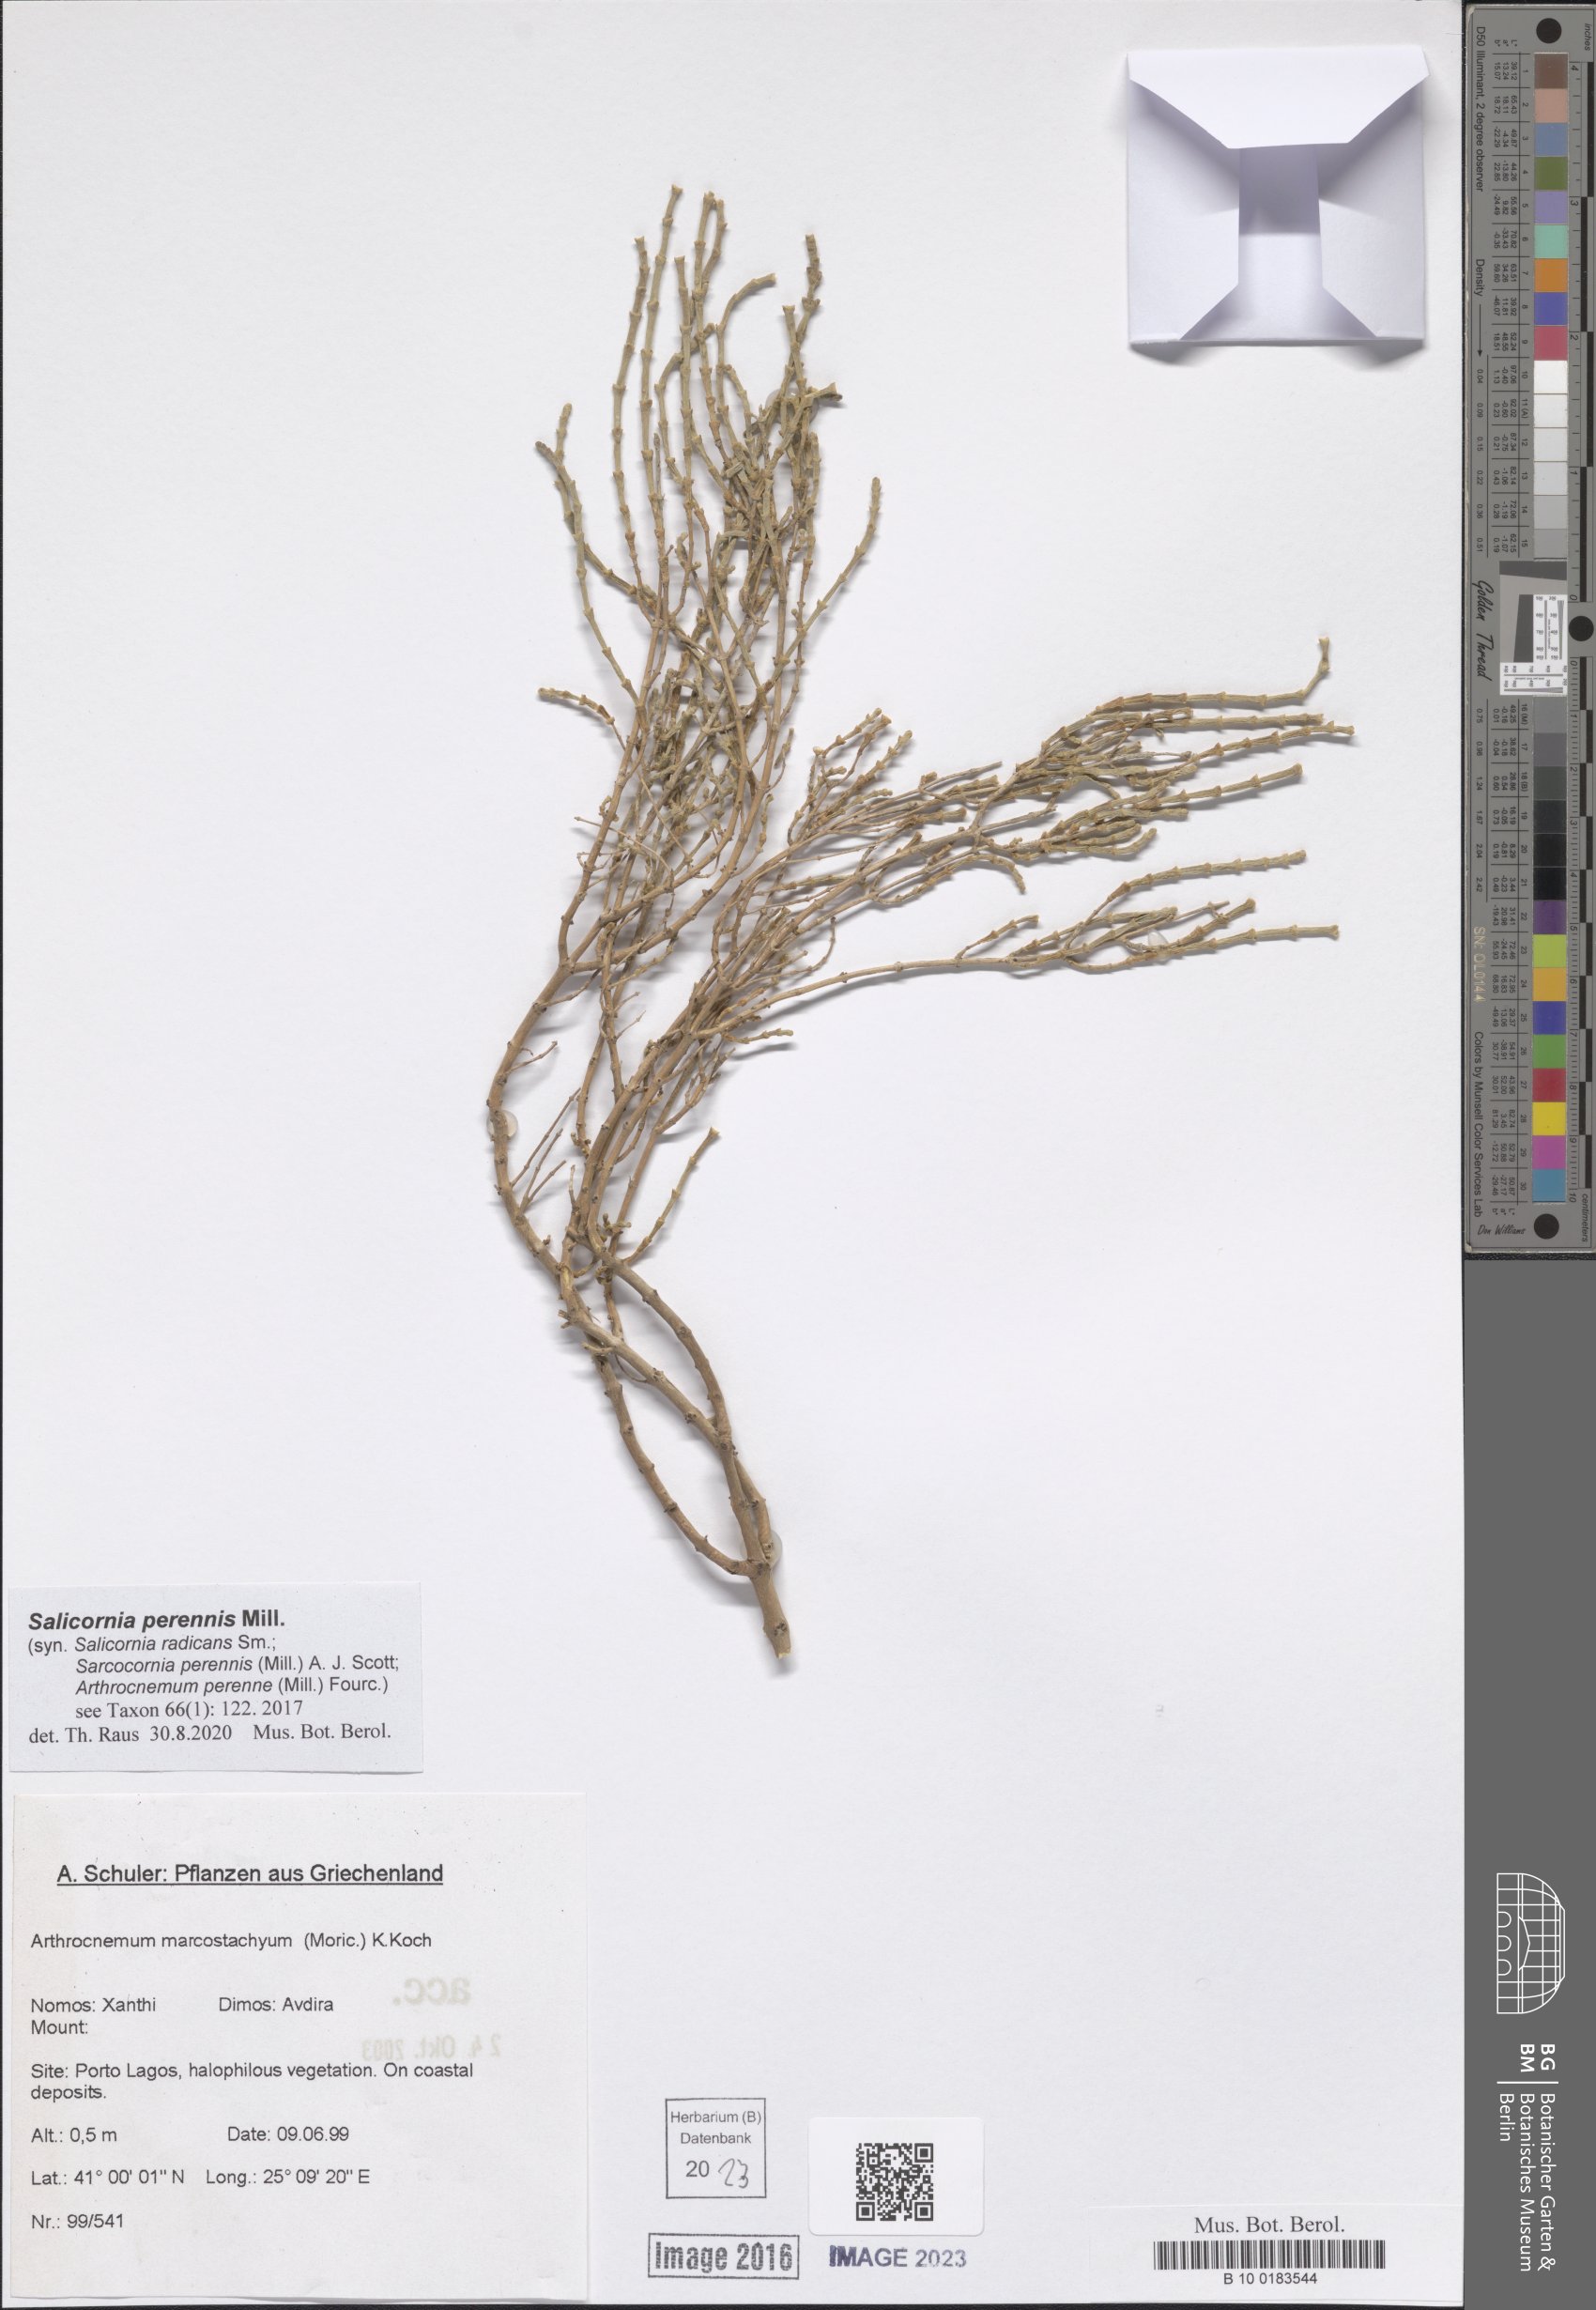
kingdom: Plantae
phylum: Tracheophyta
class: Magnoliopsida
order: Caryophyllales
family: Amaranthaceae
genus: Salicornia
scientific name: Salicornia perennis
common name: Chicken claws
